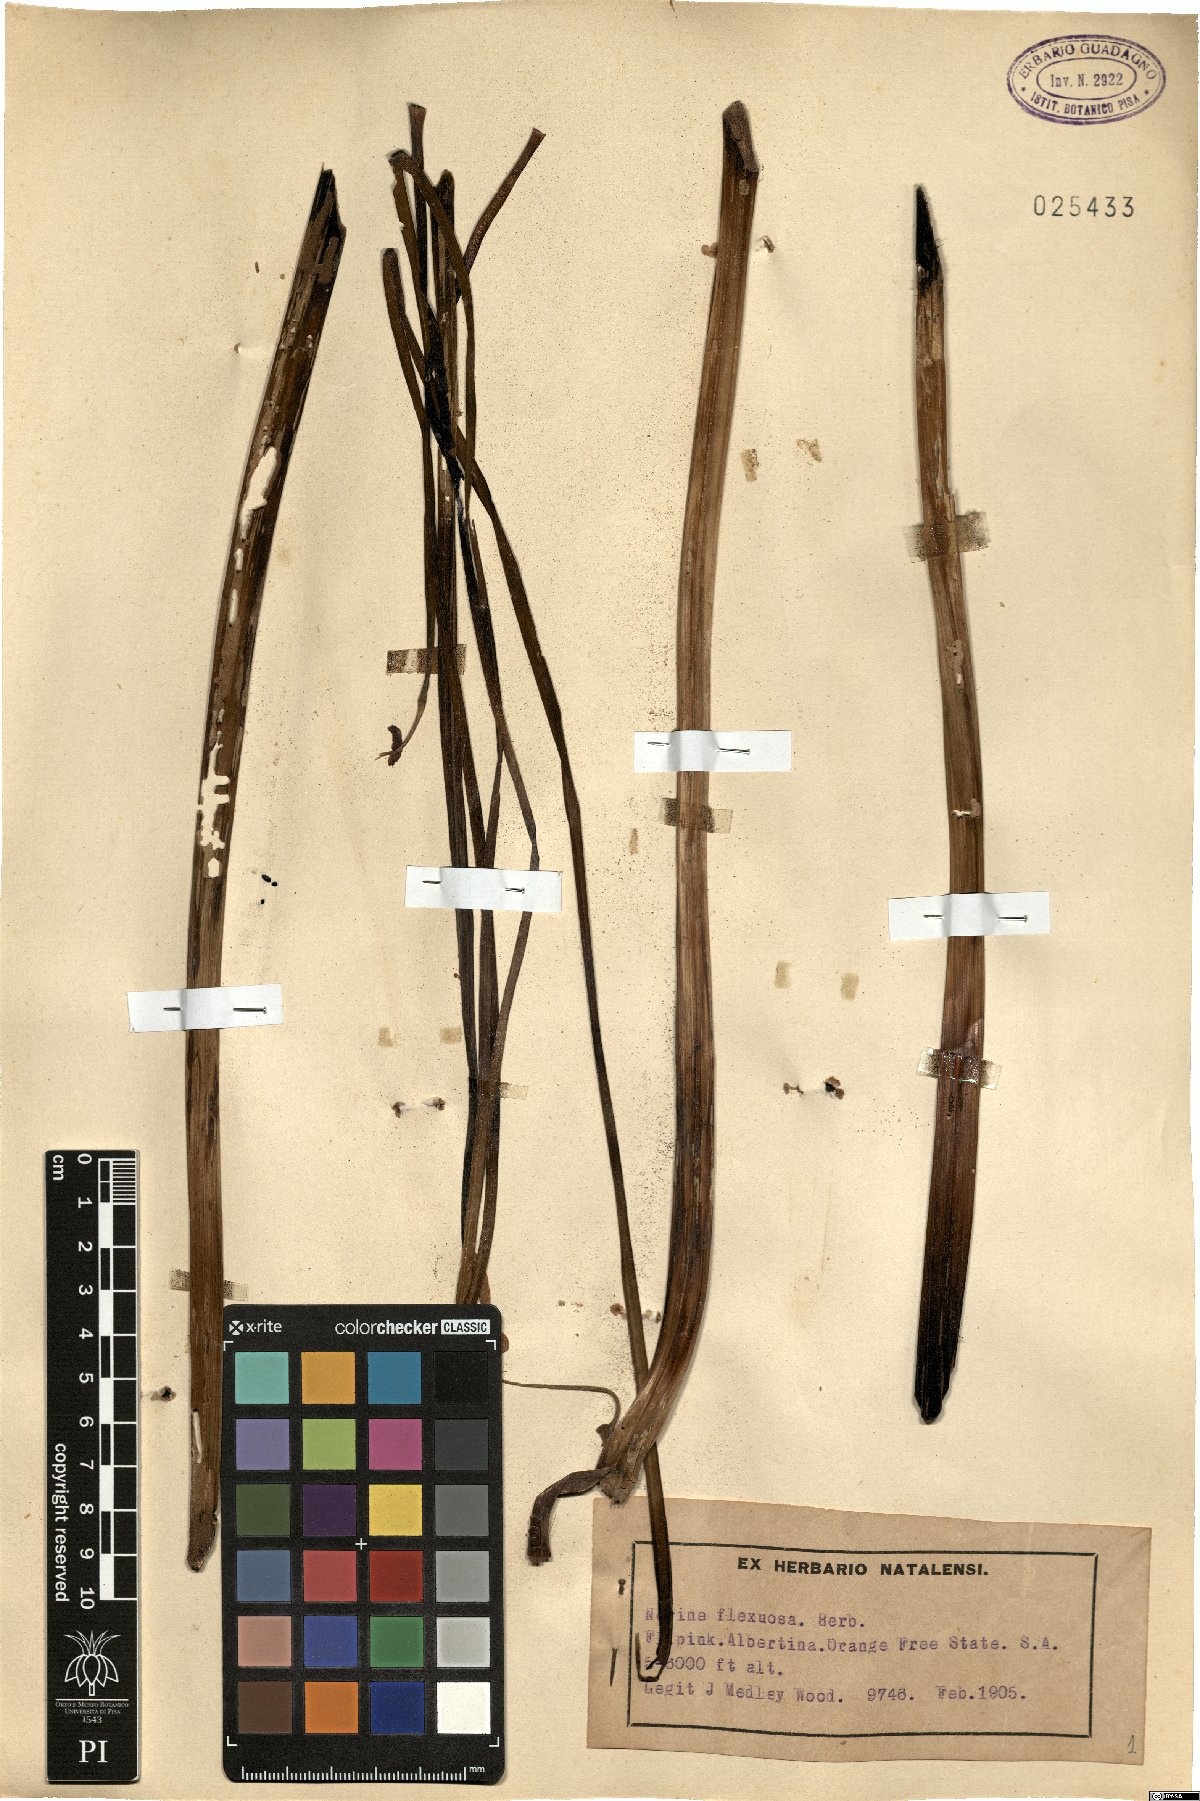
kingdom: Plantae
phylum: Tracheophyta
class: Liliopsida
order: Asparagales
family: Amaryllidaceae
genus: Nerine
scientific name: Nerine undulata
